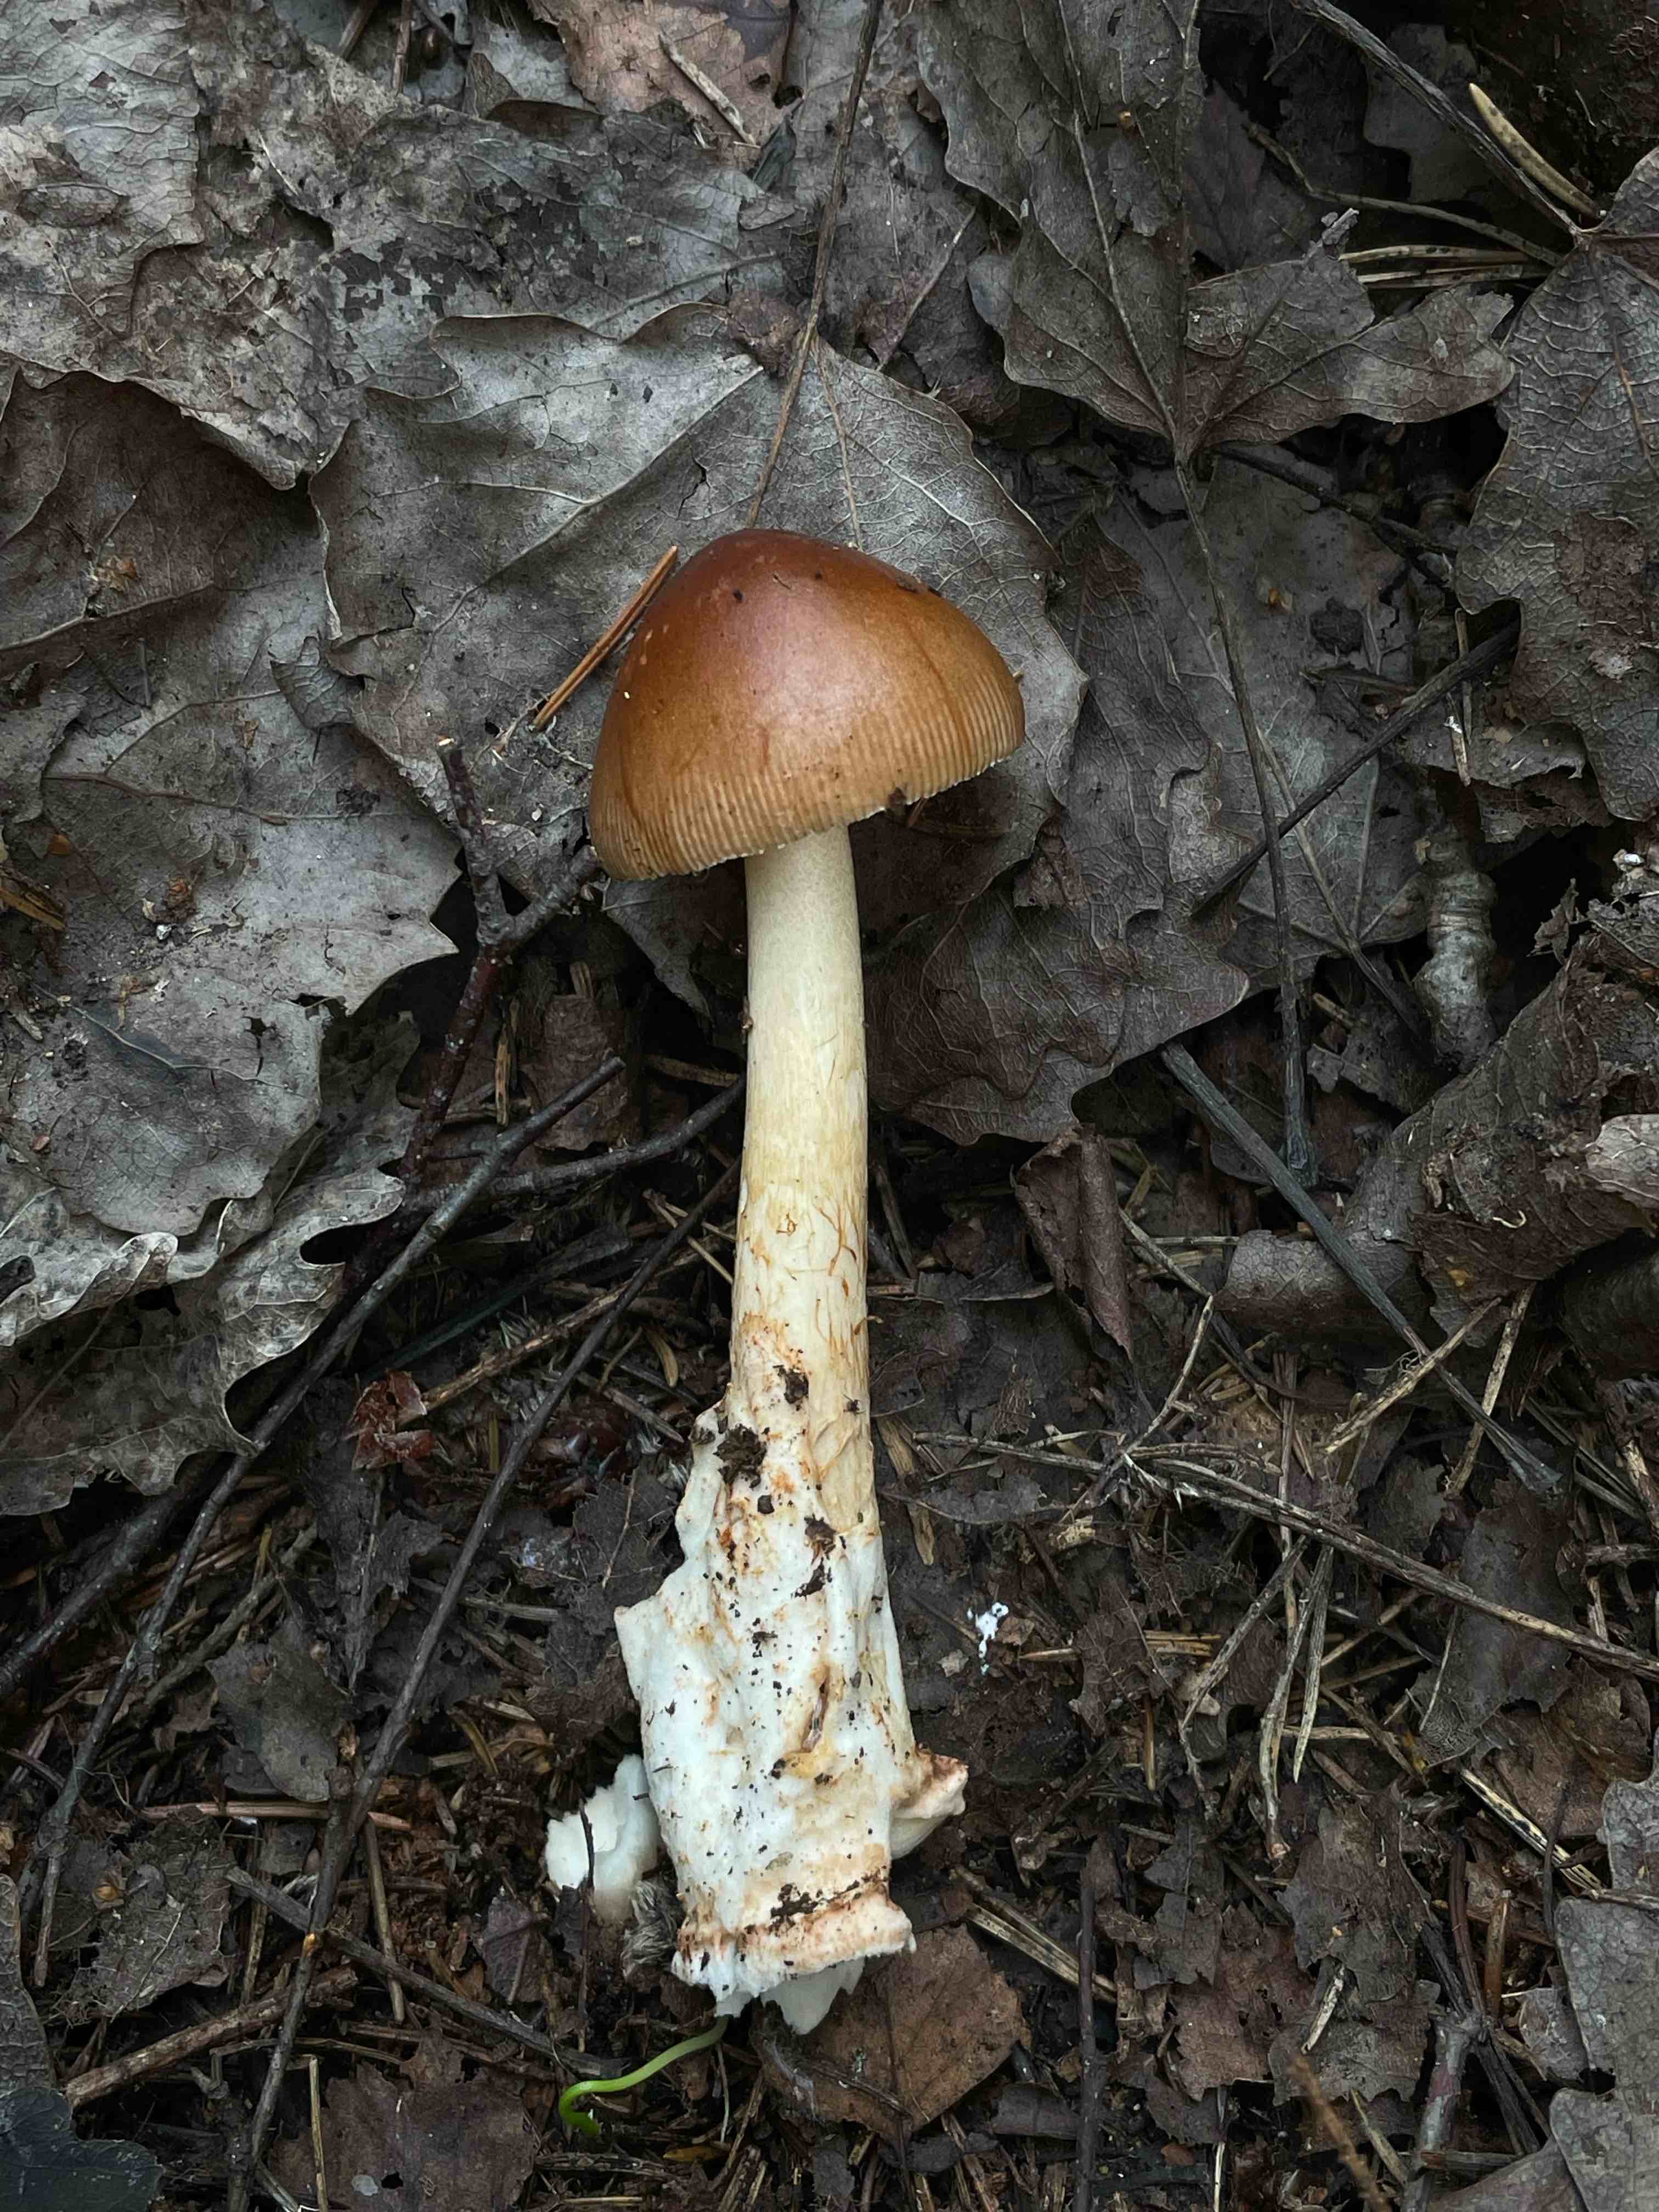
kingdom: Fungi
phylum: Basidiomycota
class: Agaricomycetes
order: Agaricales
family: Amanitaceae
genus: Amanita
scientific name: Amanita fulva
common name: brun kam-fluesvamp
